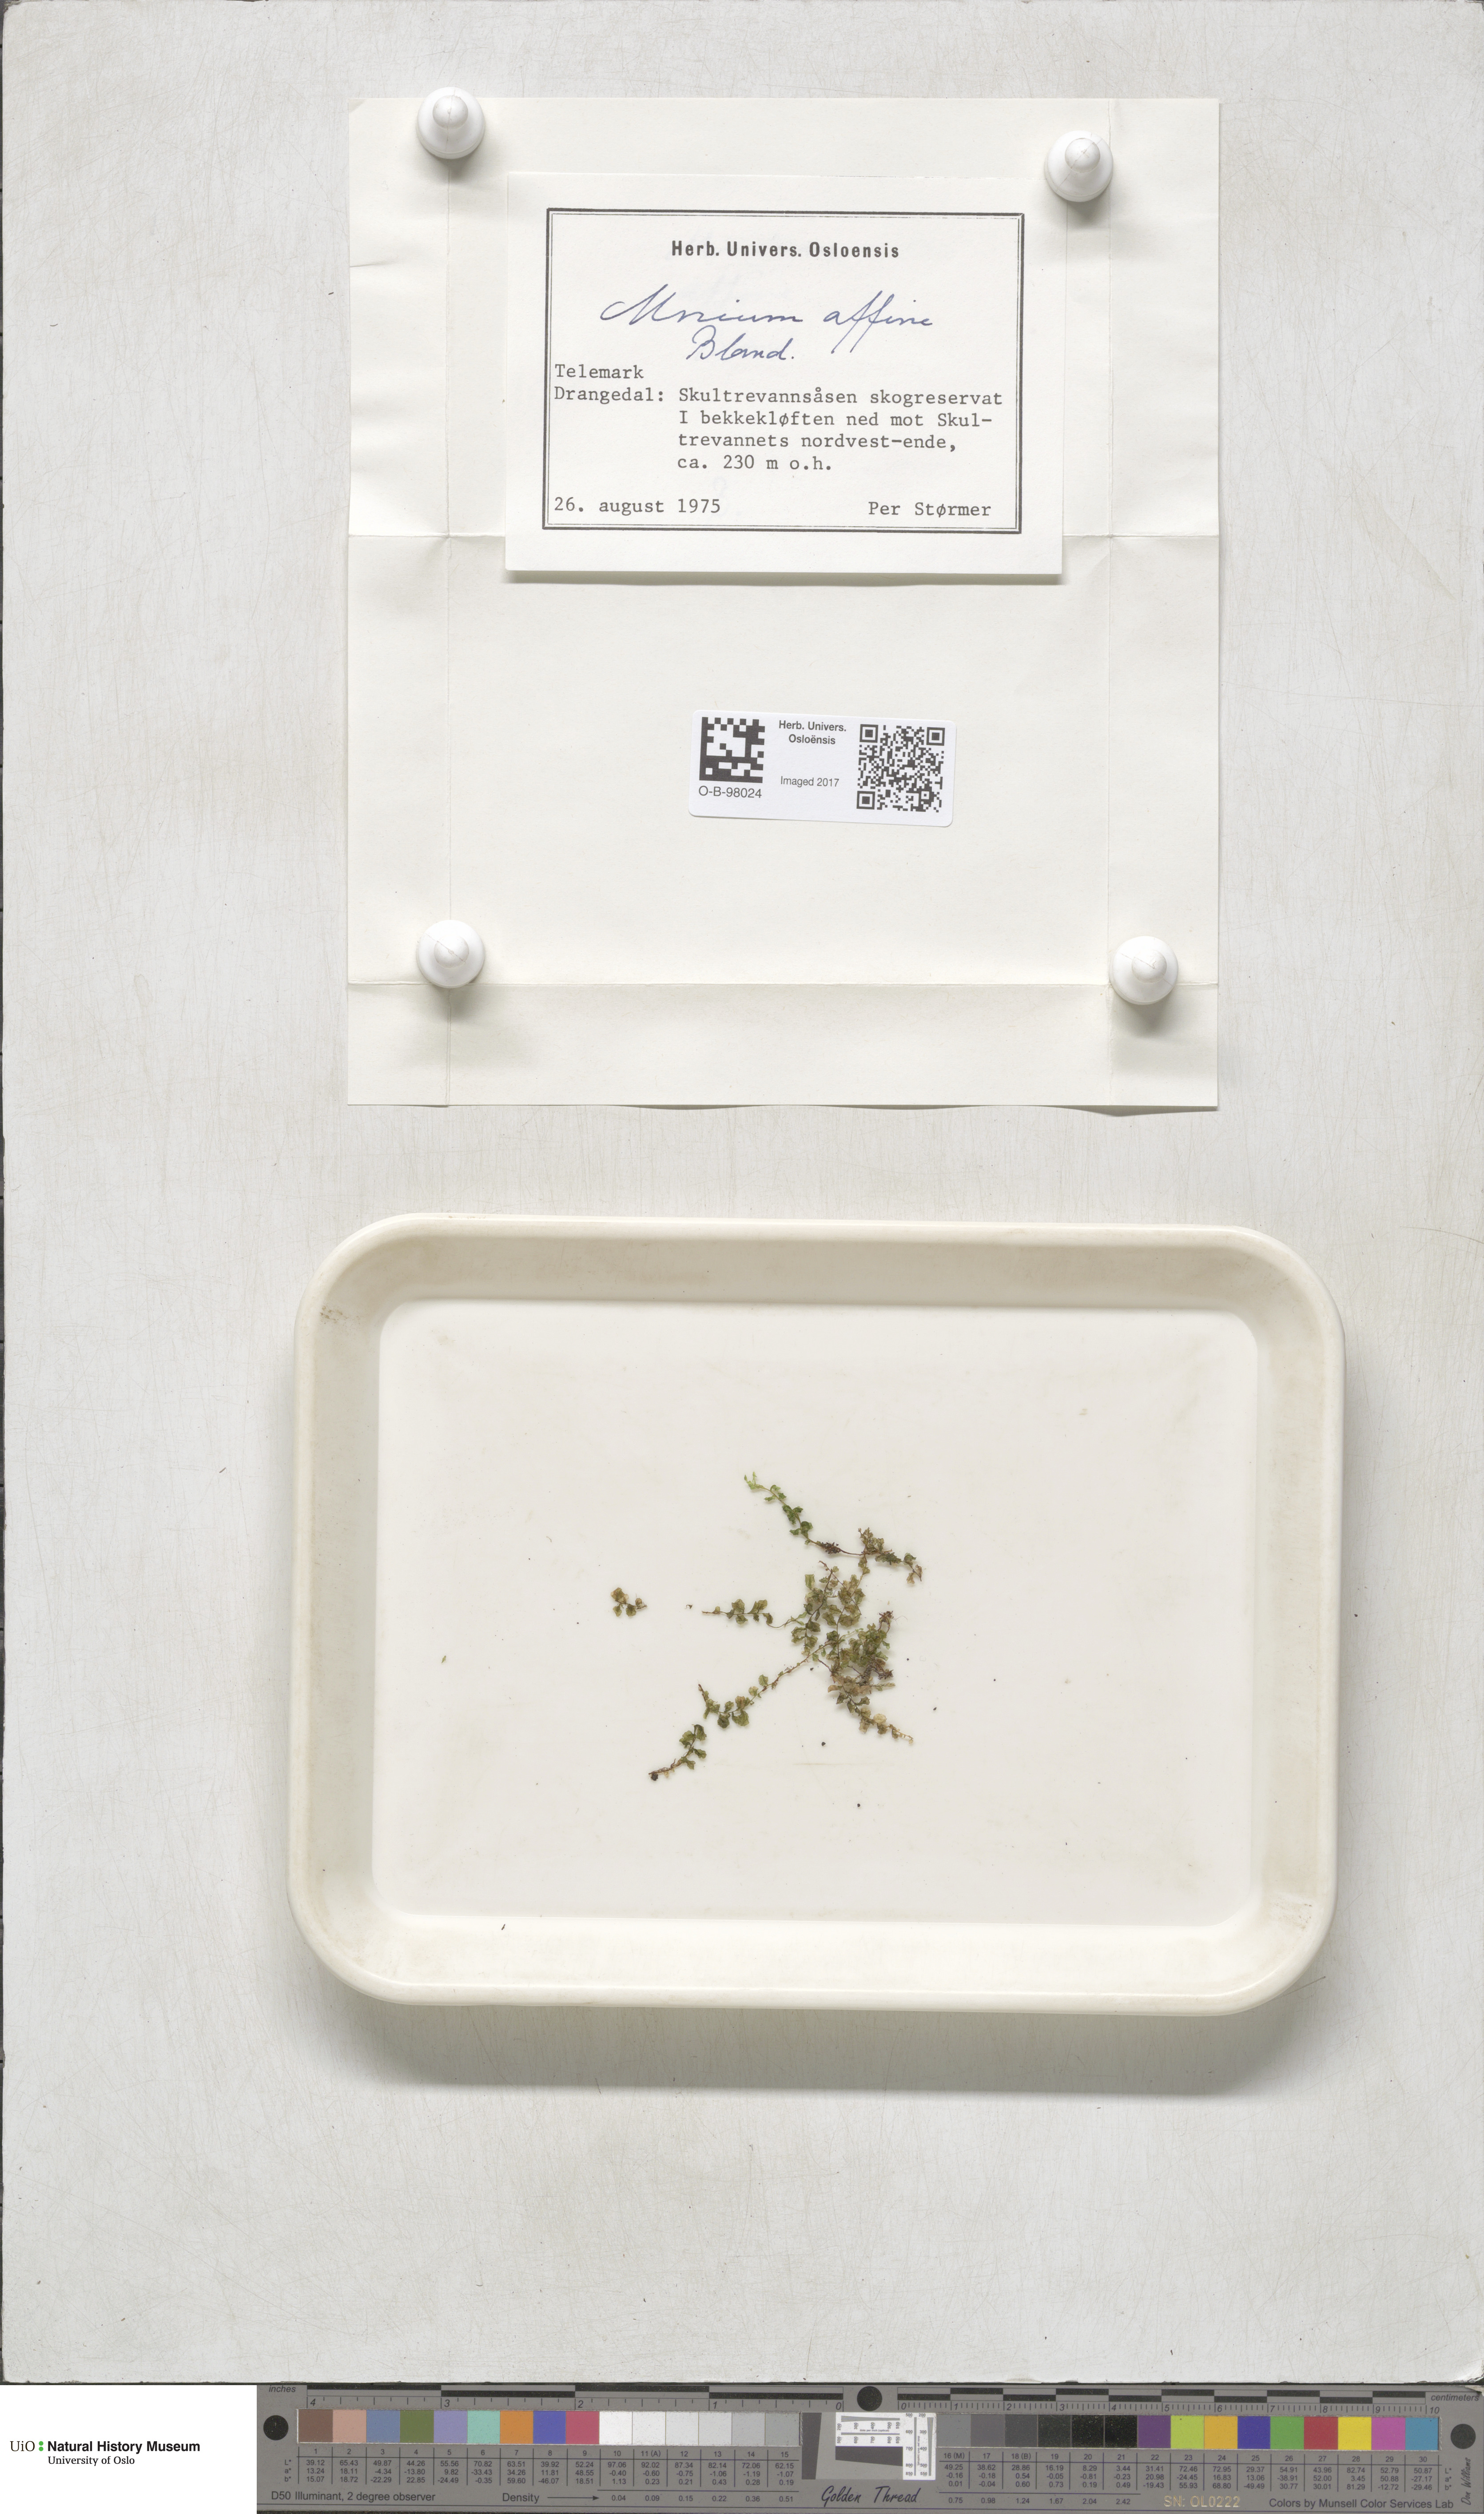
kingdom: Plantae
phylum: Bryophyta
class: Bryopsida
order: Bryales
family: Mniaceae
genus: Plagiomnium
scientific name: Plagiomnium affine
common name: Many-fruited thyme-moss
